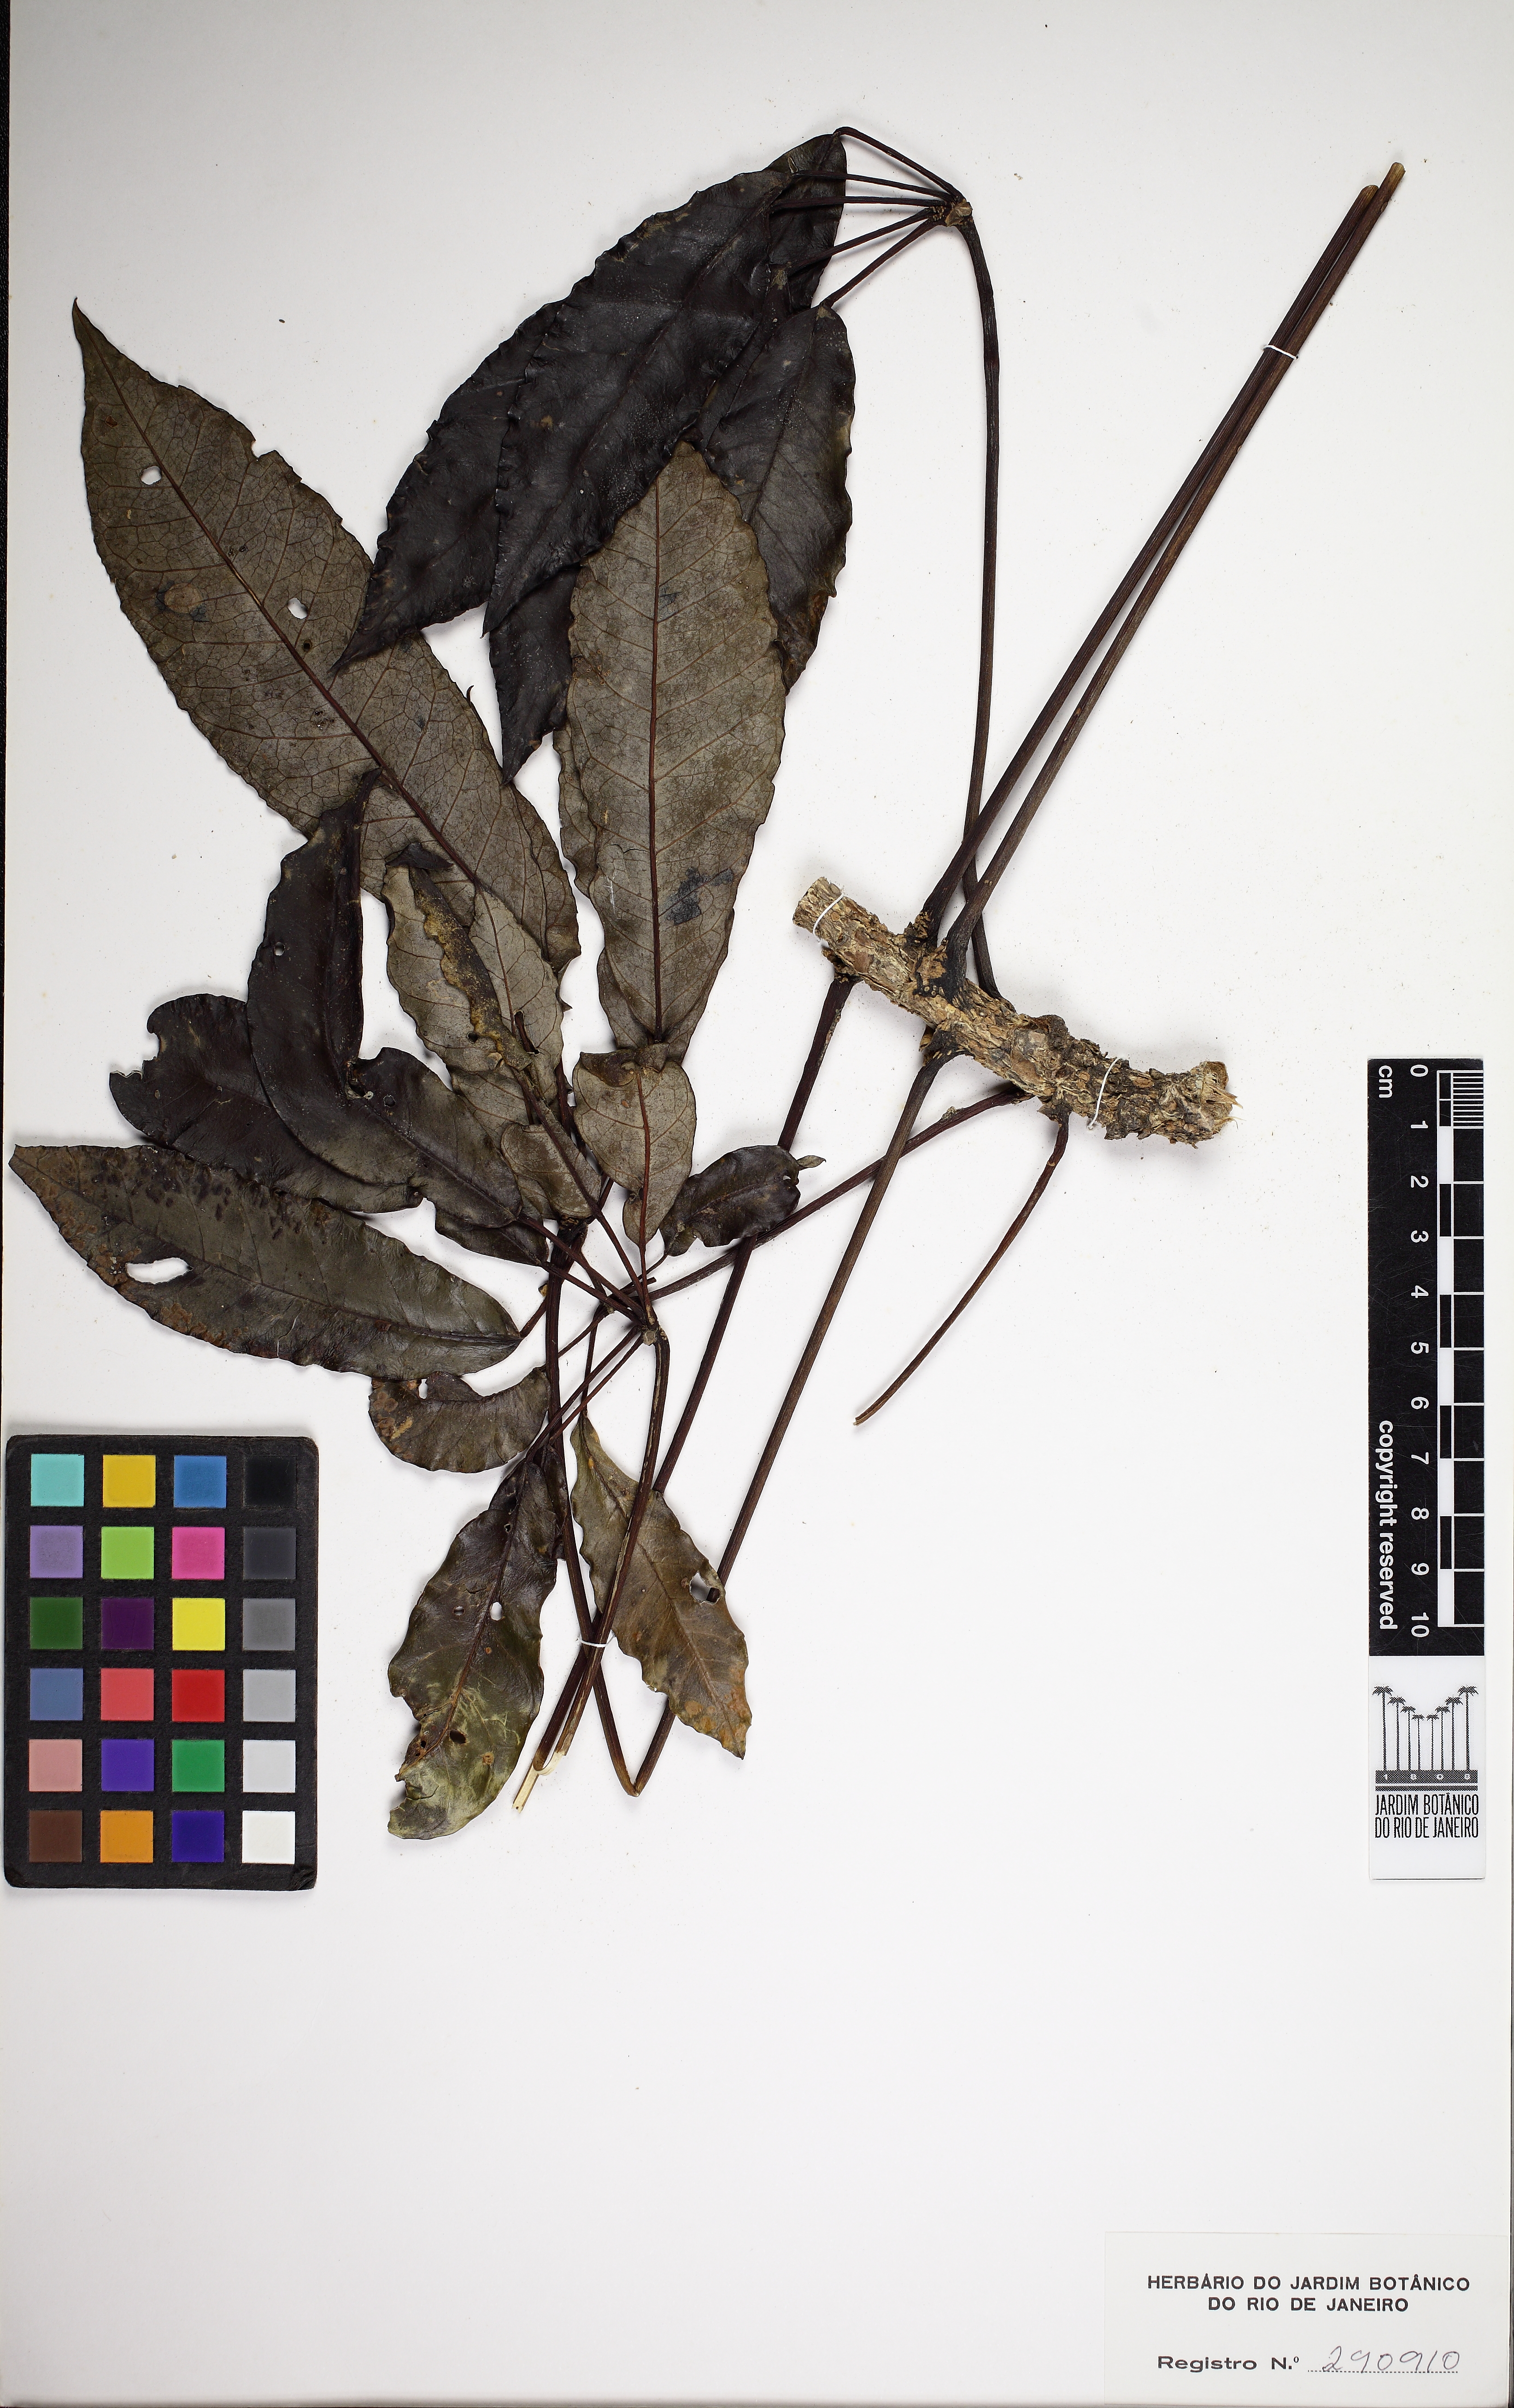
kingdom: Plantae
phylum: Tracheophyta
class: Magnoliopsida
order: Apiales
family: Araliaceae
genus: Didymopanax
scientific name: Didymopanax angustissimus
